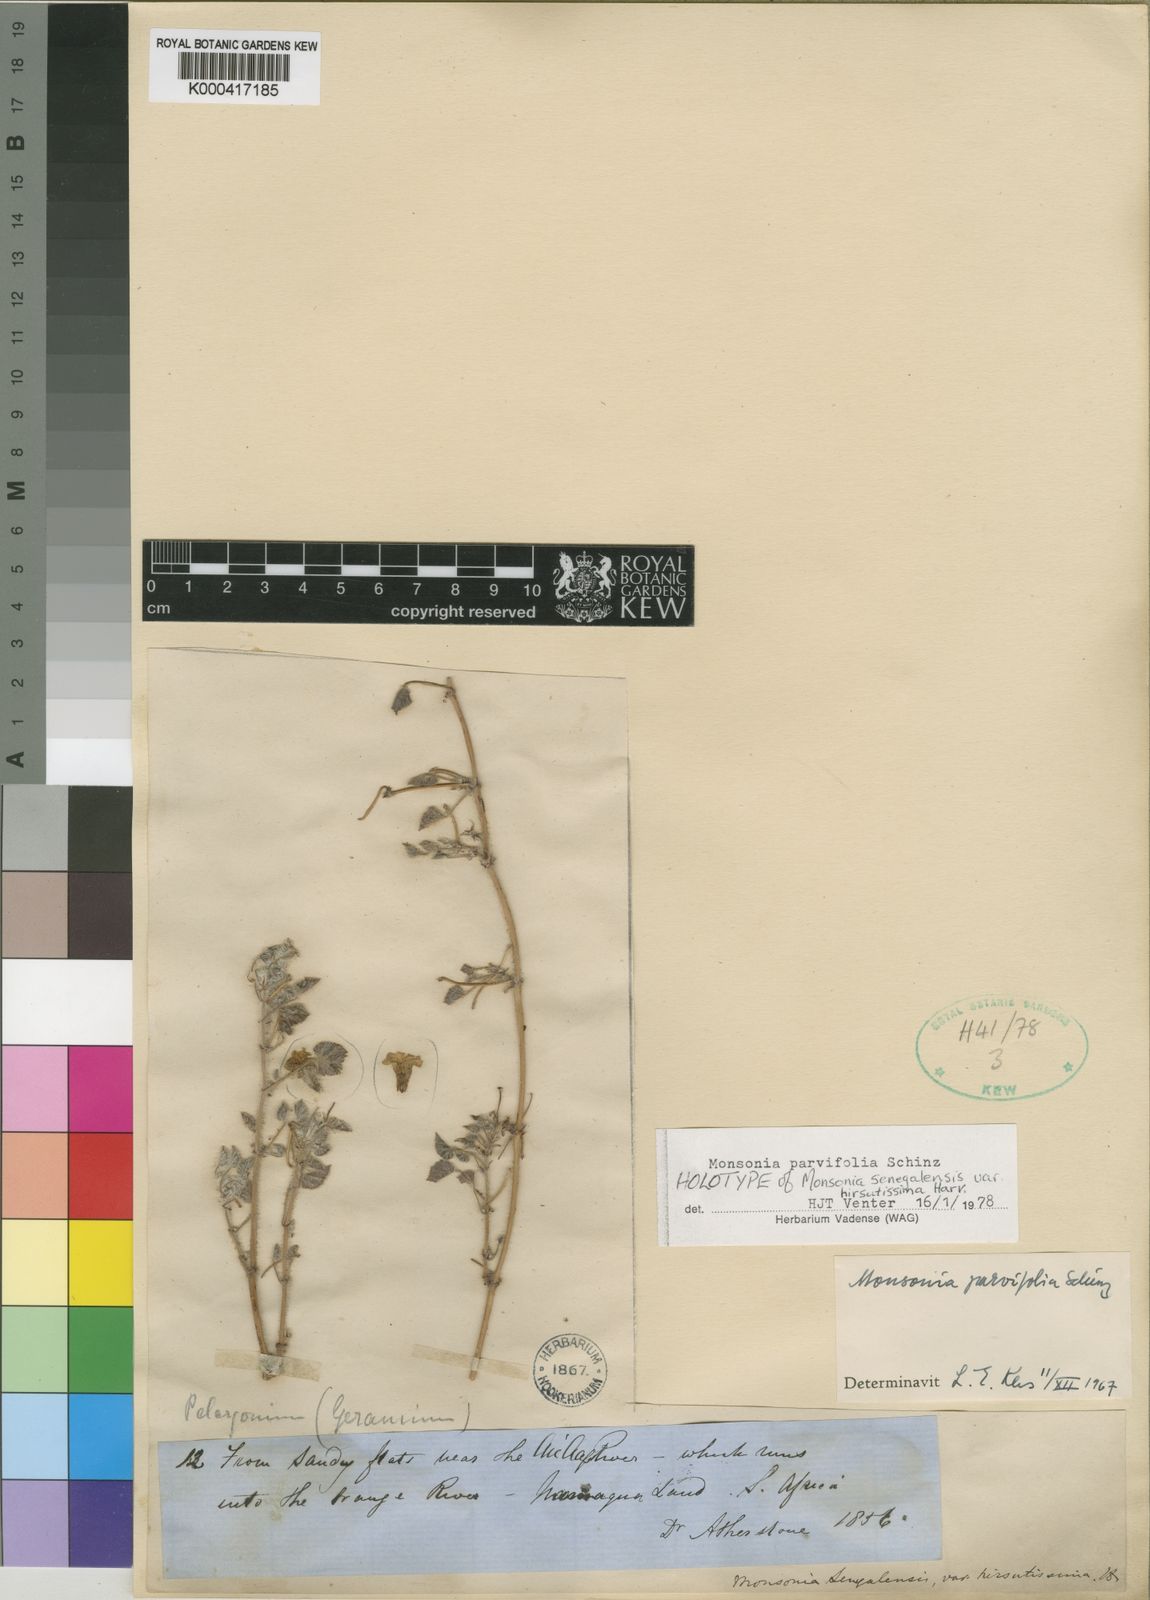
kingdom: Plantae
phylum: Tracheophyta
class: Magnoliopsida
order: Geraniales
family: Geraniaceae
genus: Monsonia
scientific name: Monsonia parvifolia
